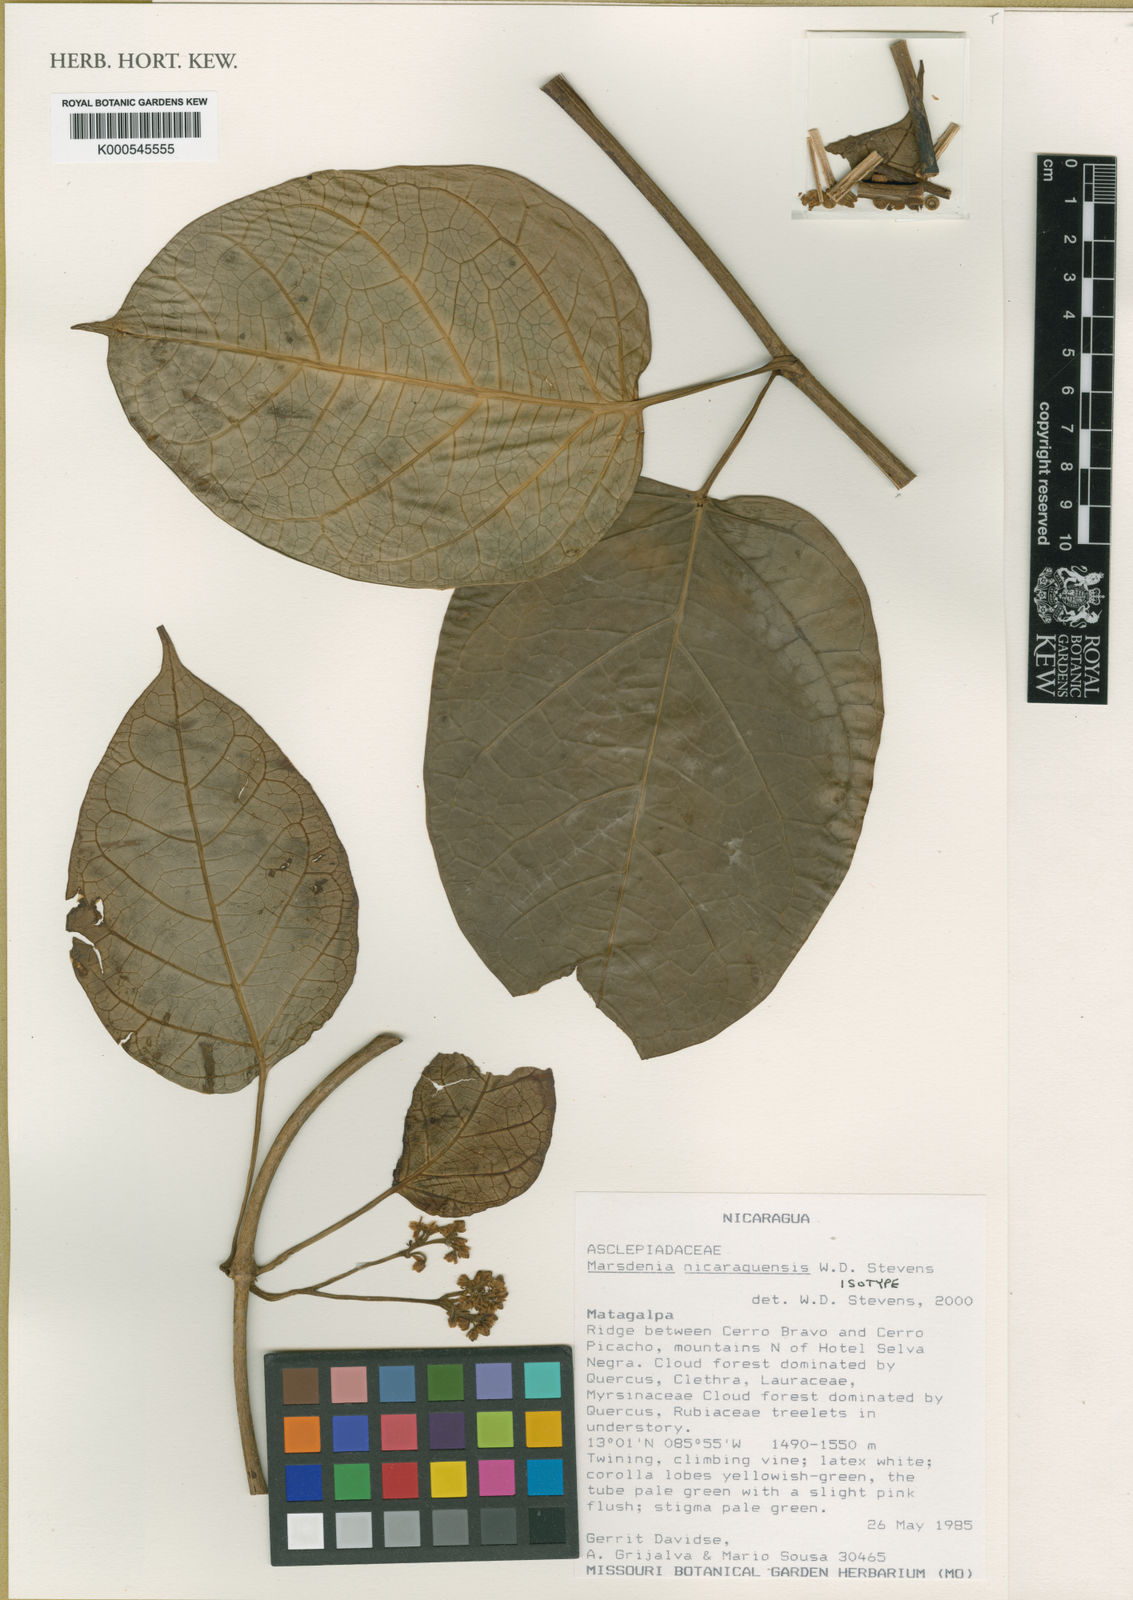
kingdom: Plantae
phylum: Tracheophyta
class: Magnoliopsida
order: Gentianales
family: Apocynaceae
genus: Ruehssia
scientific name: Ruehssia nicaraguensis
